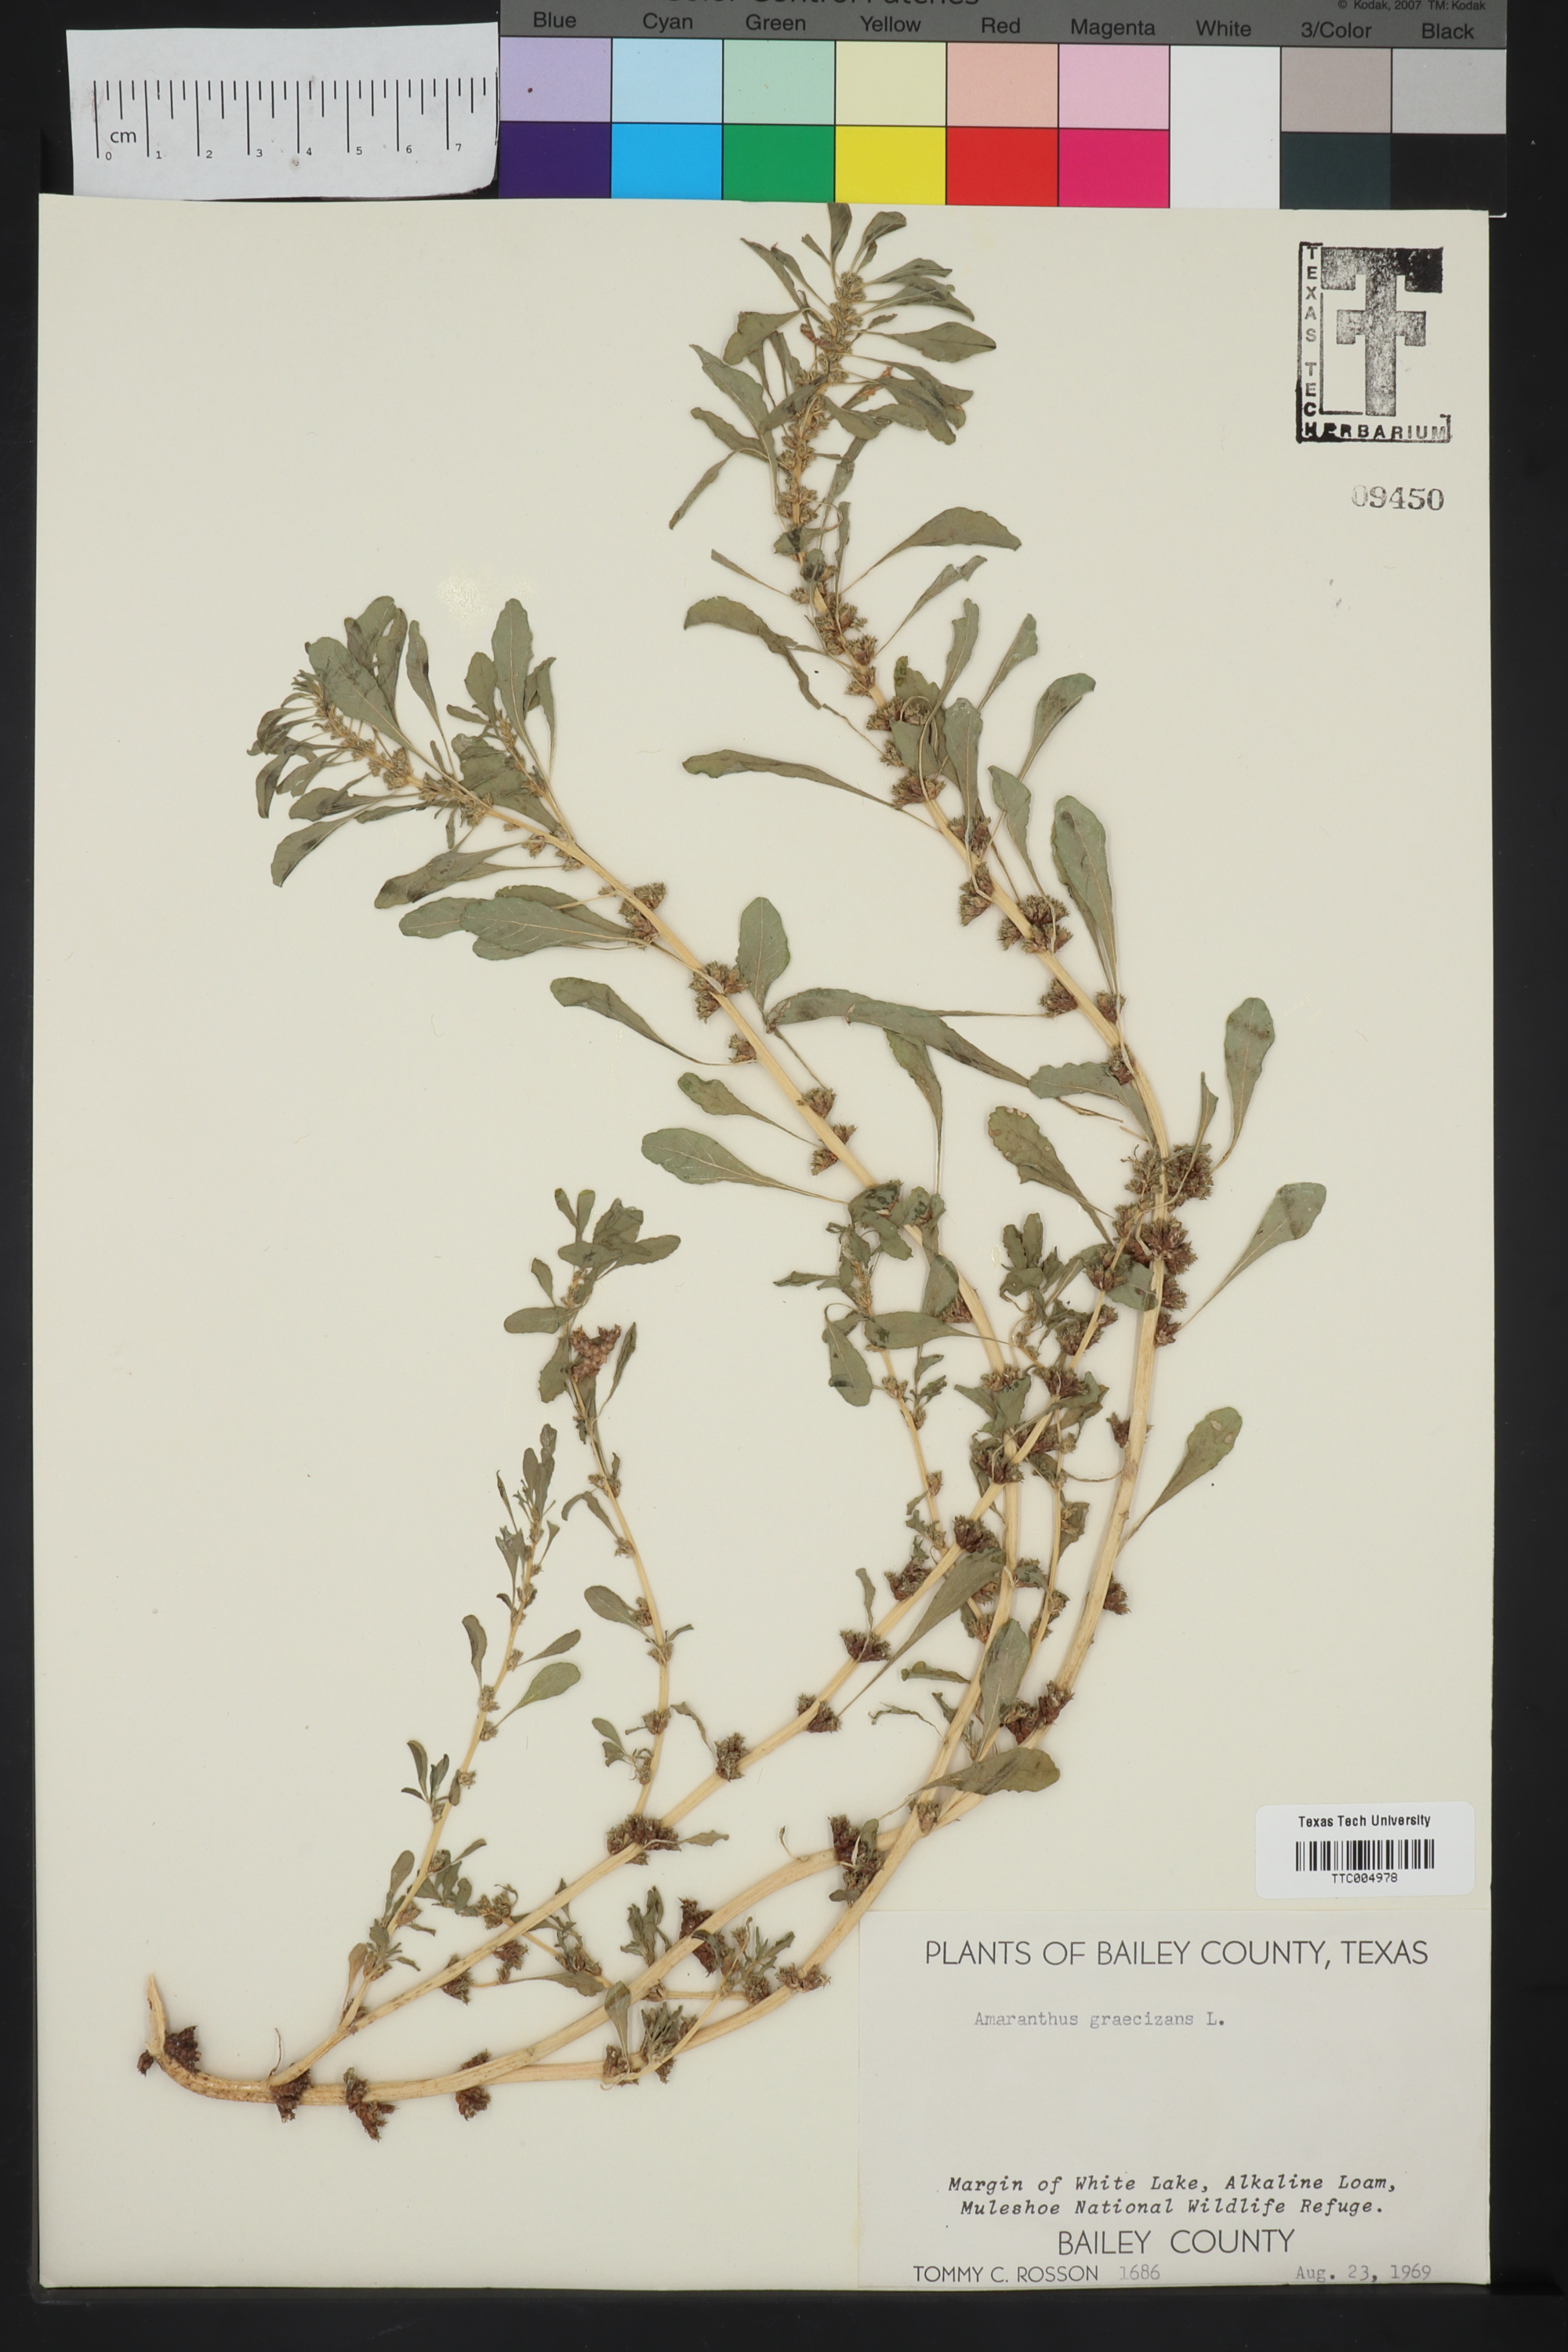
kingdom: Plantae
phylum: Tracheophyta
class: Magnoliopsida
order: Caryophyllales
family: Amaranthaceae
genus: Amaranthus
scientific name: Amaranthus graecizans
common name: Mediterranean amaranth
